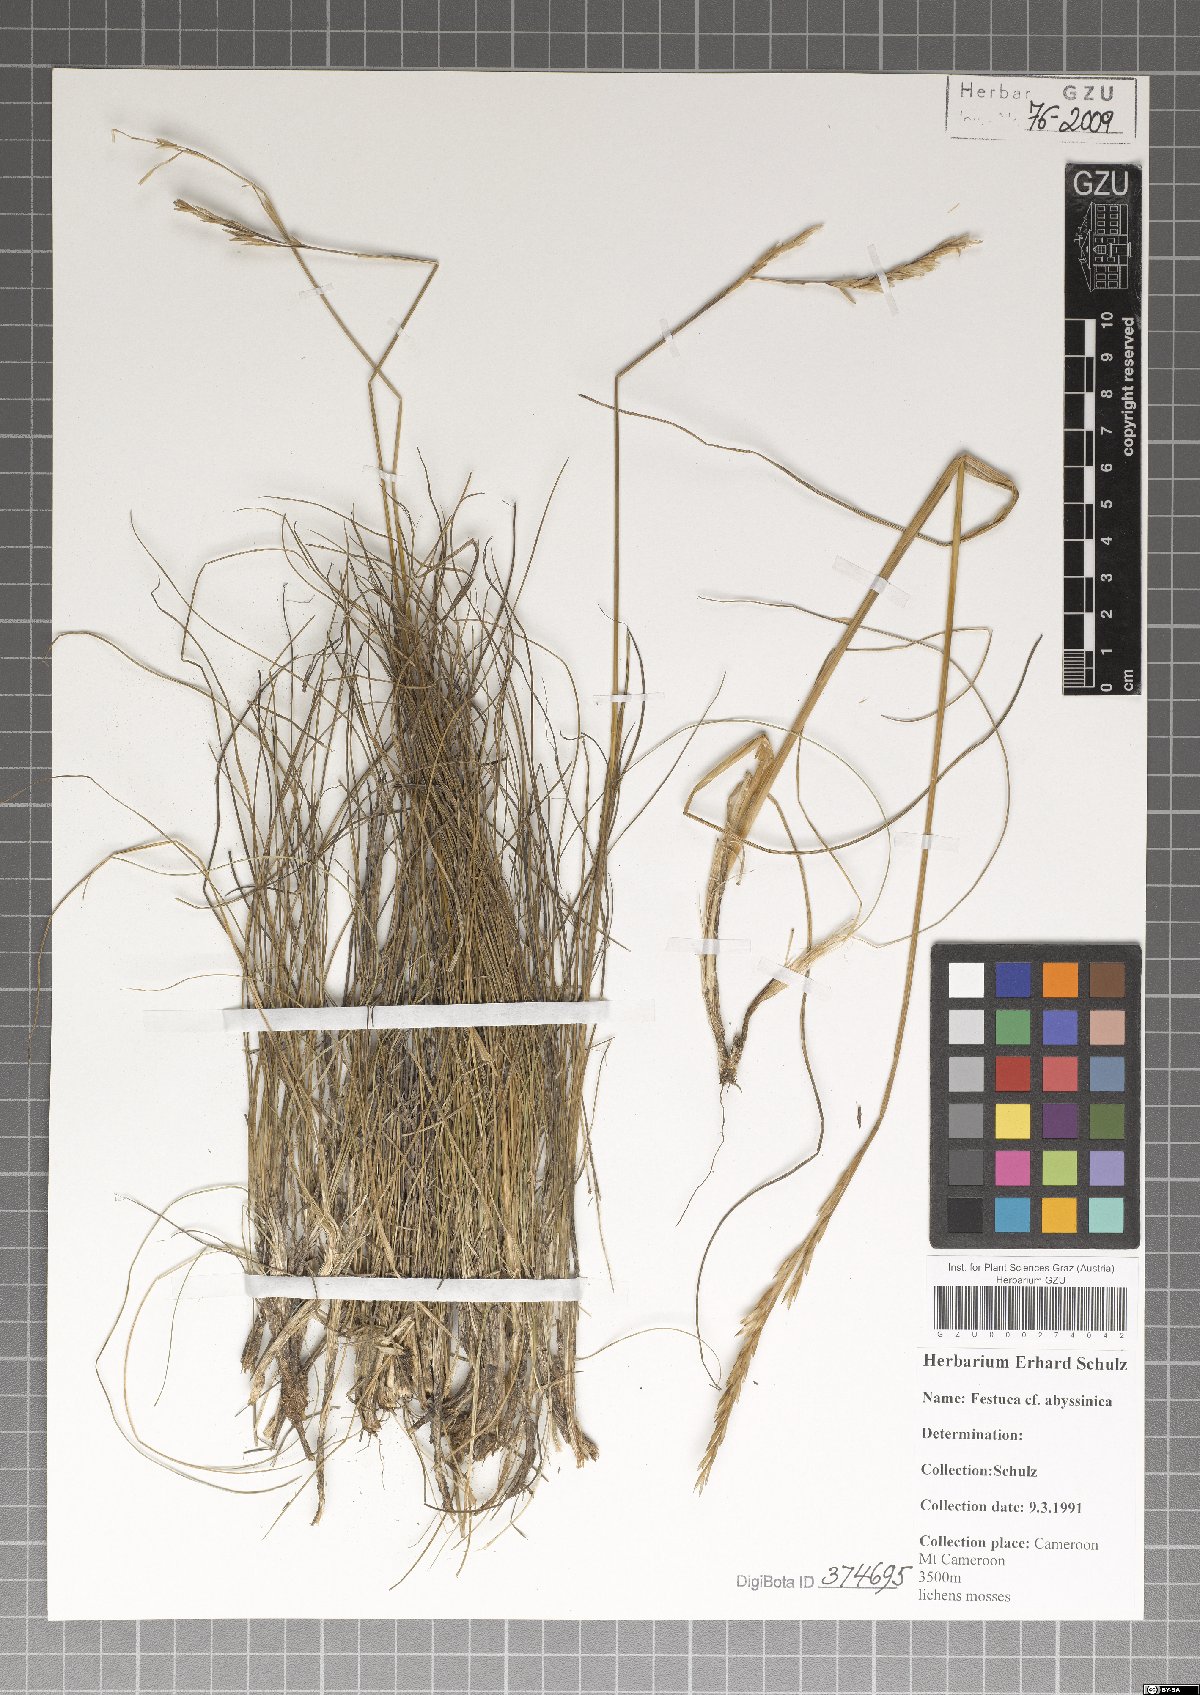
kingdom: Plantae
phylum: Tracheophyta
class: Liliopsida
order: Poales
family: Poaceae
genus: Festuca
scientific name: Festuca abyssinica
